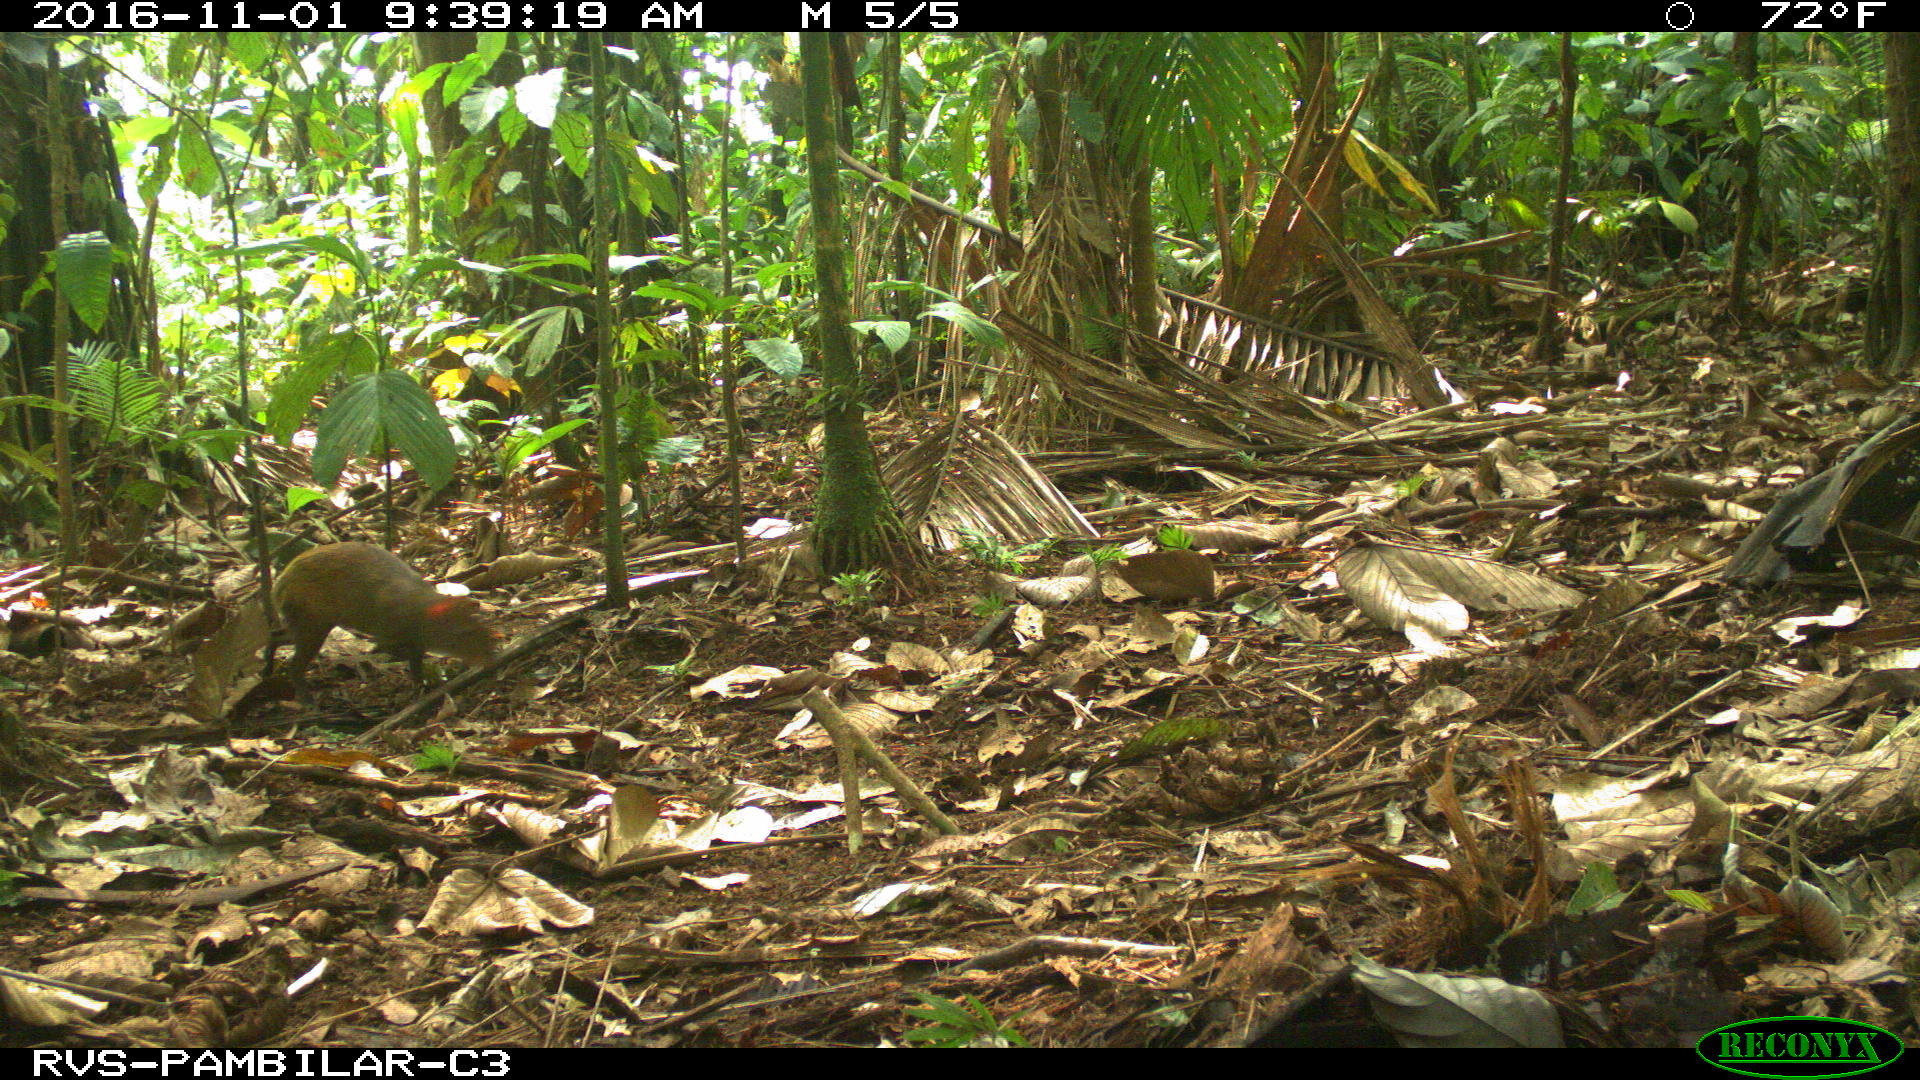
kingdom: Animalia
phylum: Chordata
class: Mammalia
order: Rodentia
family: Dasyproctidae
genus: Dasyprocta
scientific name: Dasyprocta punctata
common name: Central american agouti
